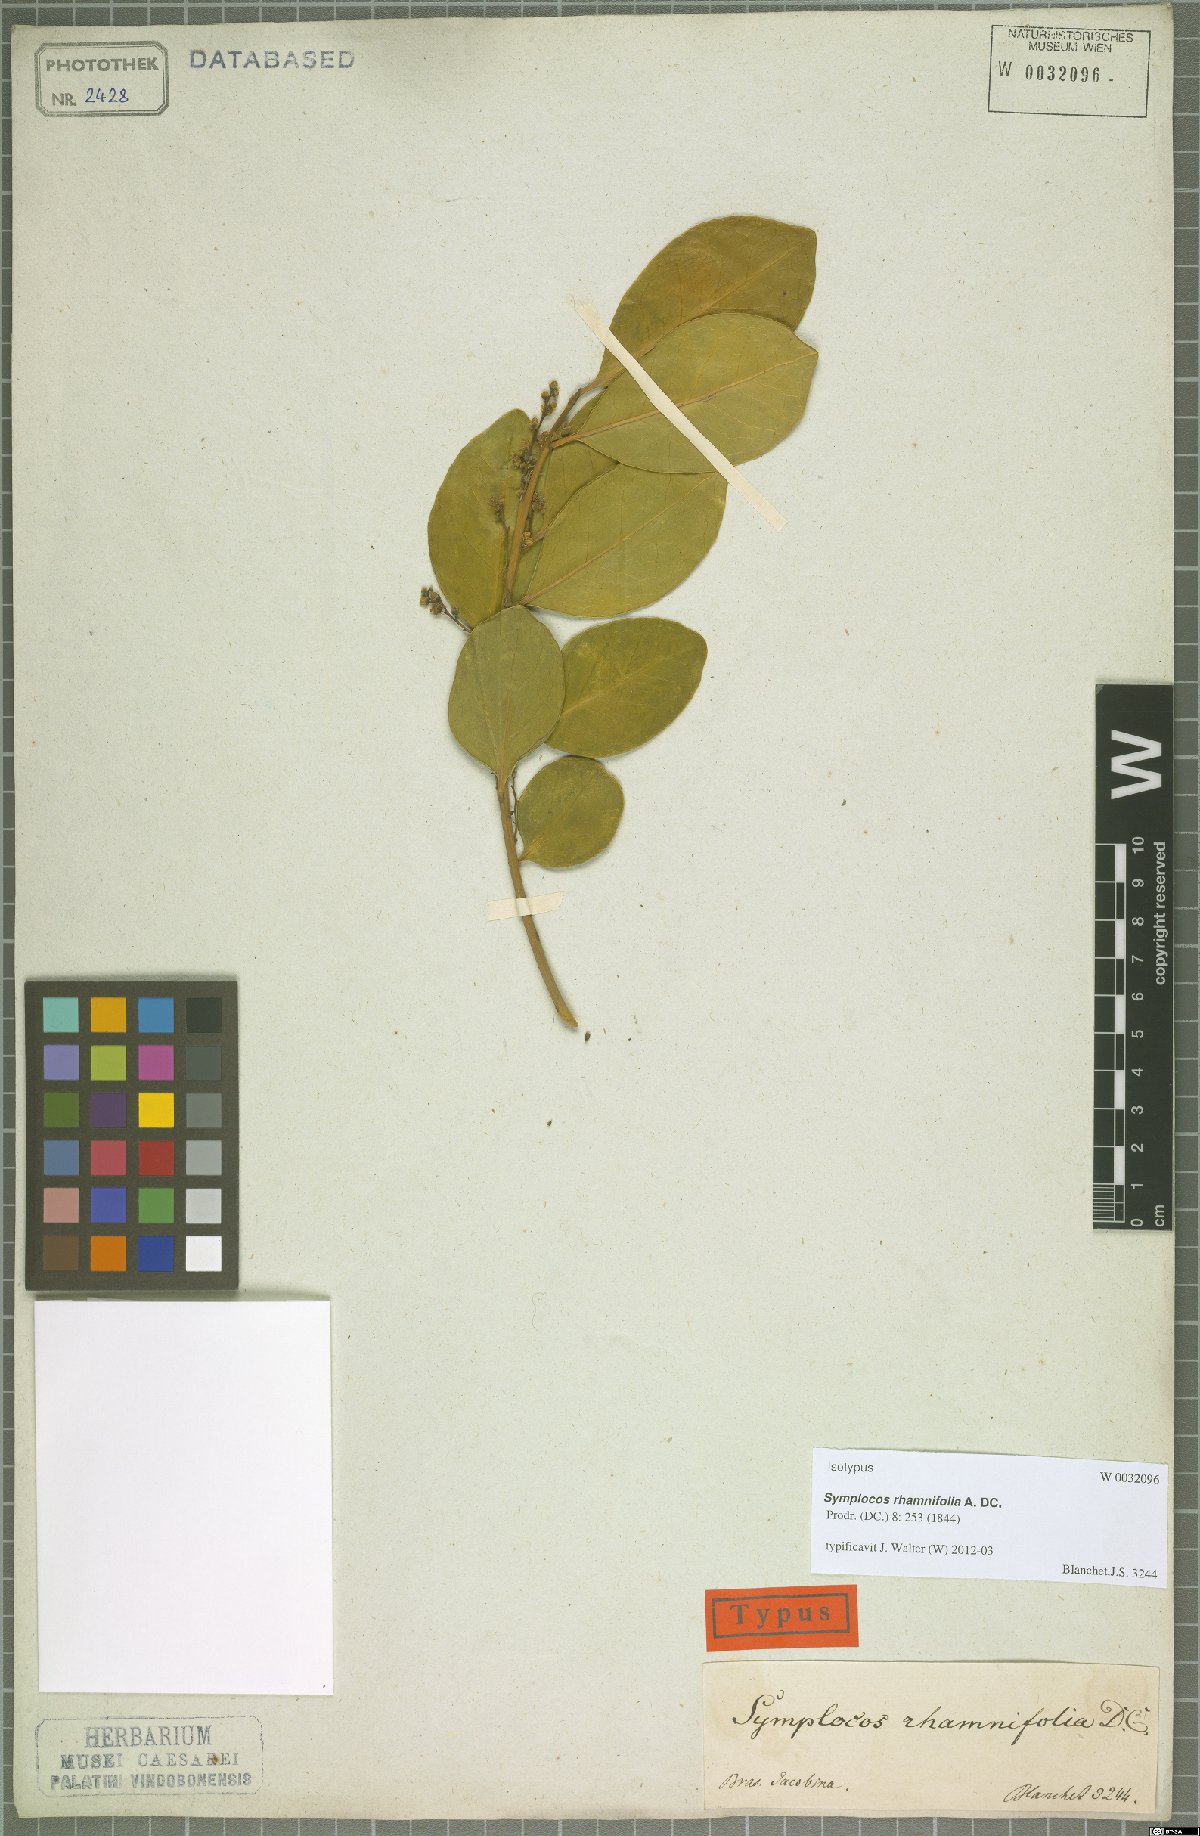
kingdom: Plantae
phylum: Tracheophyta
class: Magnoliopsida
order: Ericales
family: Symplocaceae
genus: Symplocos
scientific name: Symplocos rhamnifolia
